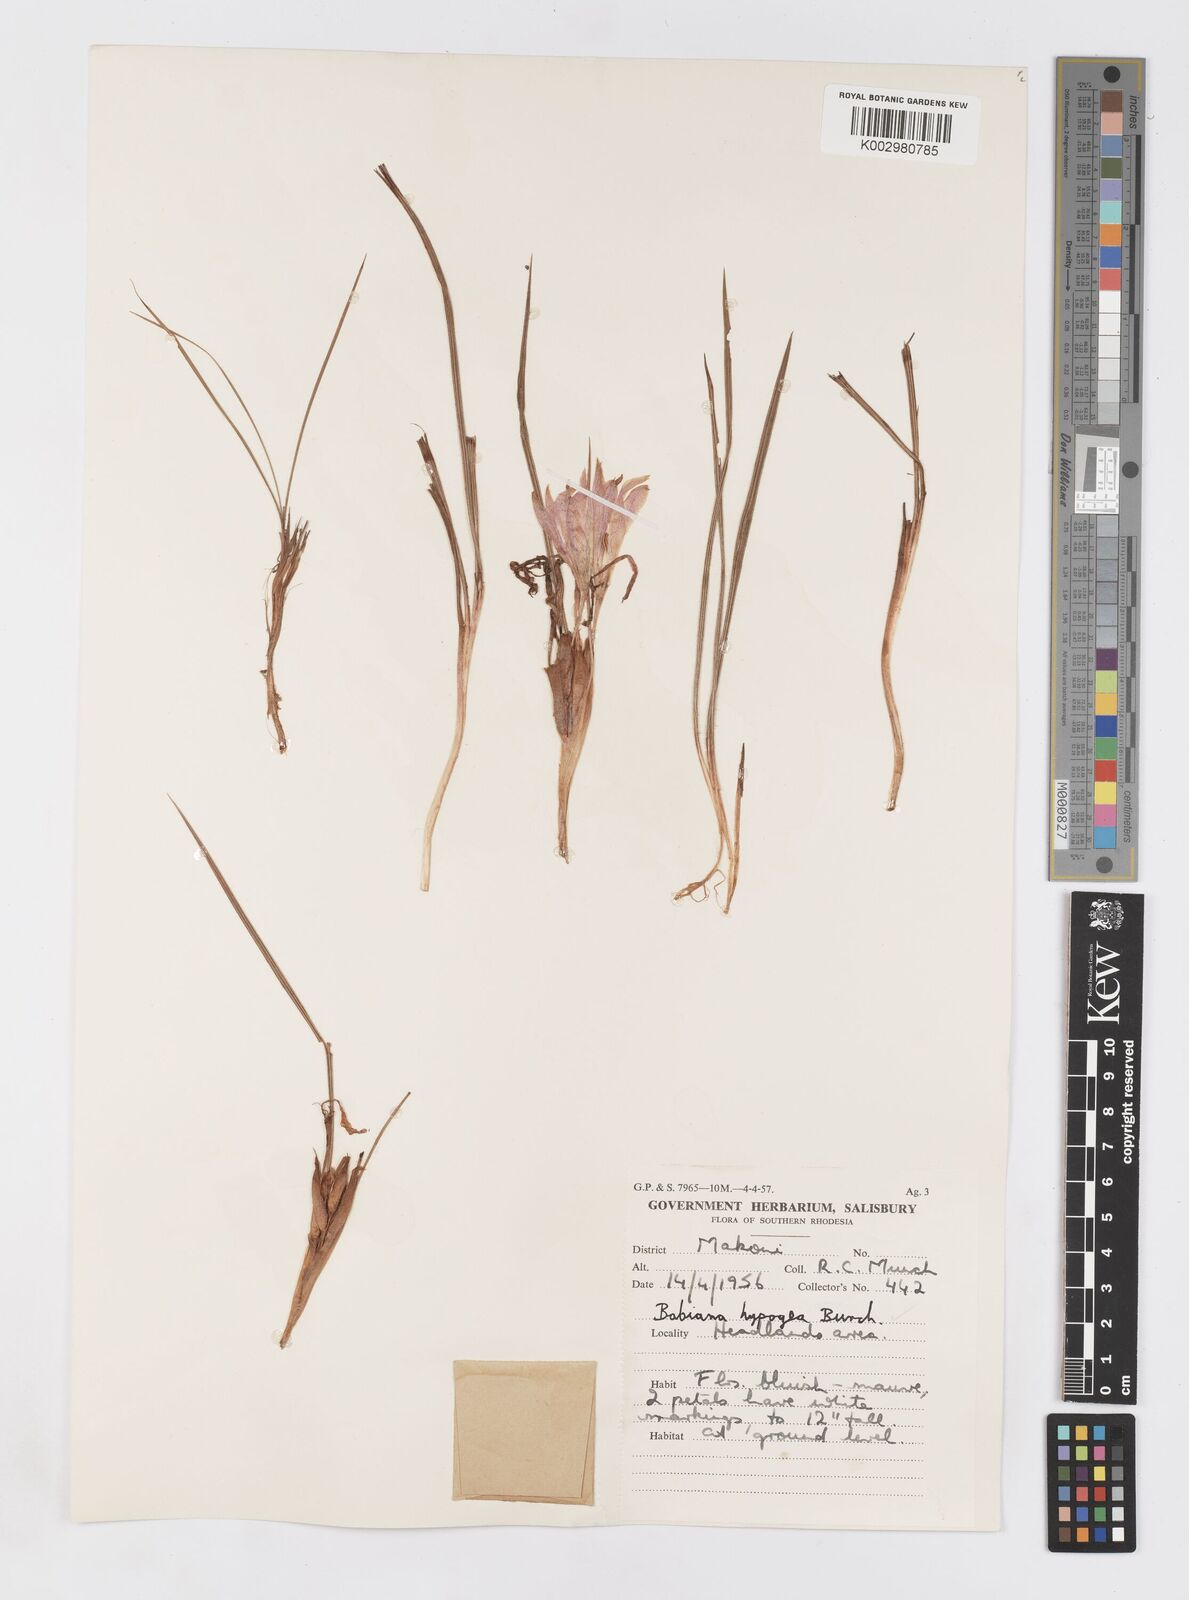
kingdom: Plantae
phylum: Tracheophyta
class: Liliopsida
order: Asparagales
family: Iridaceae
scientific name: Iridaceae
